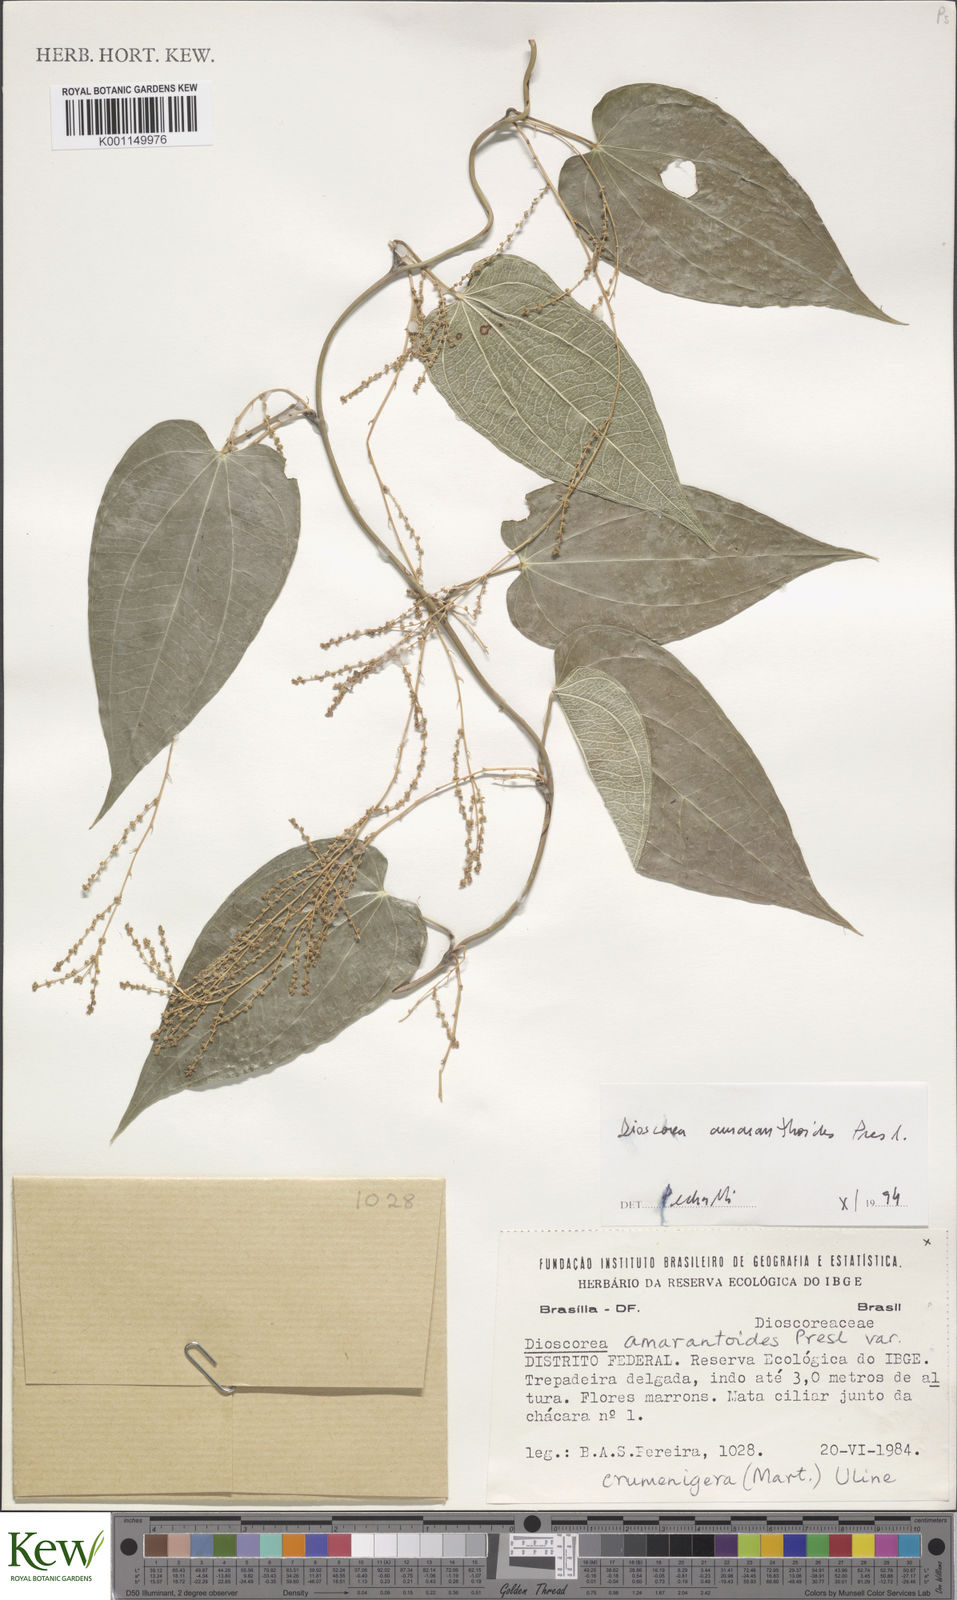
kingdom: Plantae
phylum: Tracheophyta
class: Liliopsida
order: Dioscoreales
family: Dioscoreaceae
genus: Dioscorea
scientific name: Dioscorea
